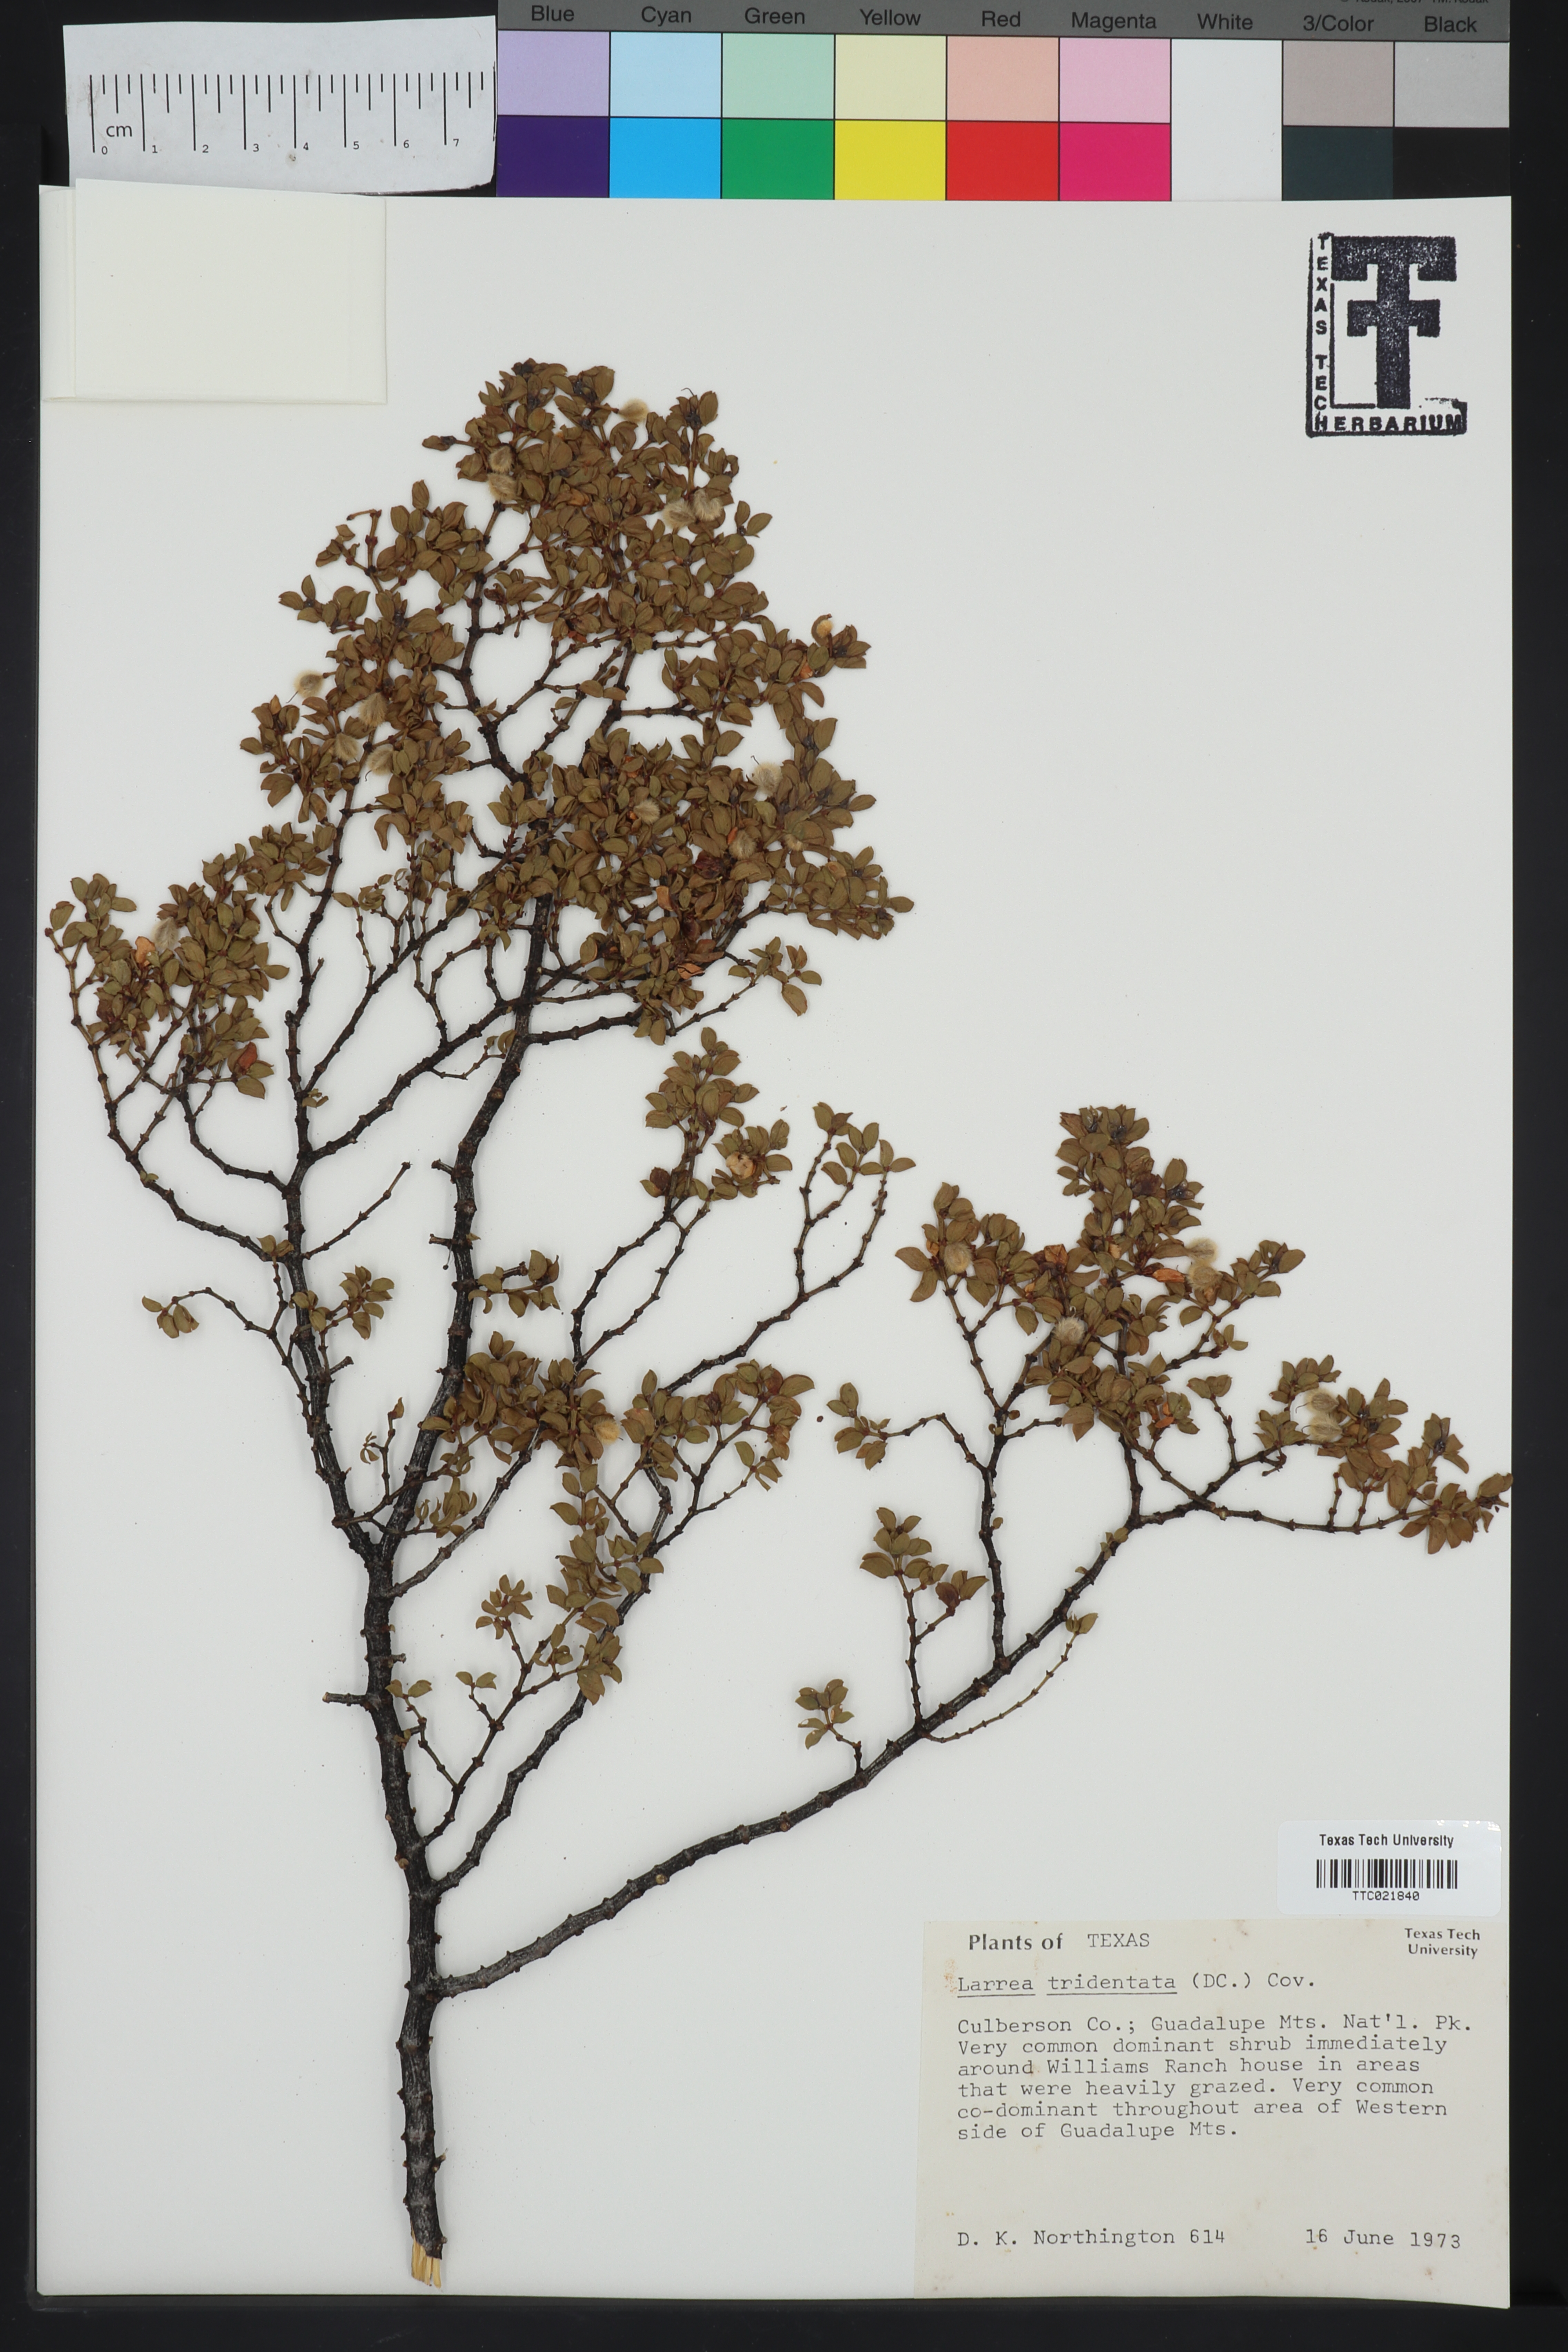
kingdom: Plantae
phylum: Tracheophyta
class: Magnoliopsida
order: Zygophyllales
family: Zygophyllaceae
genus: Larrea
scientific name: Larrea tridentata
